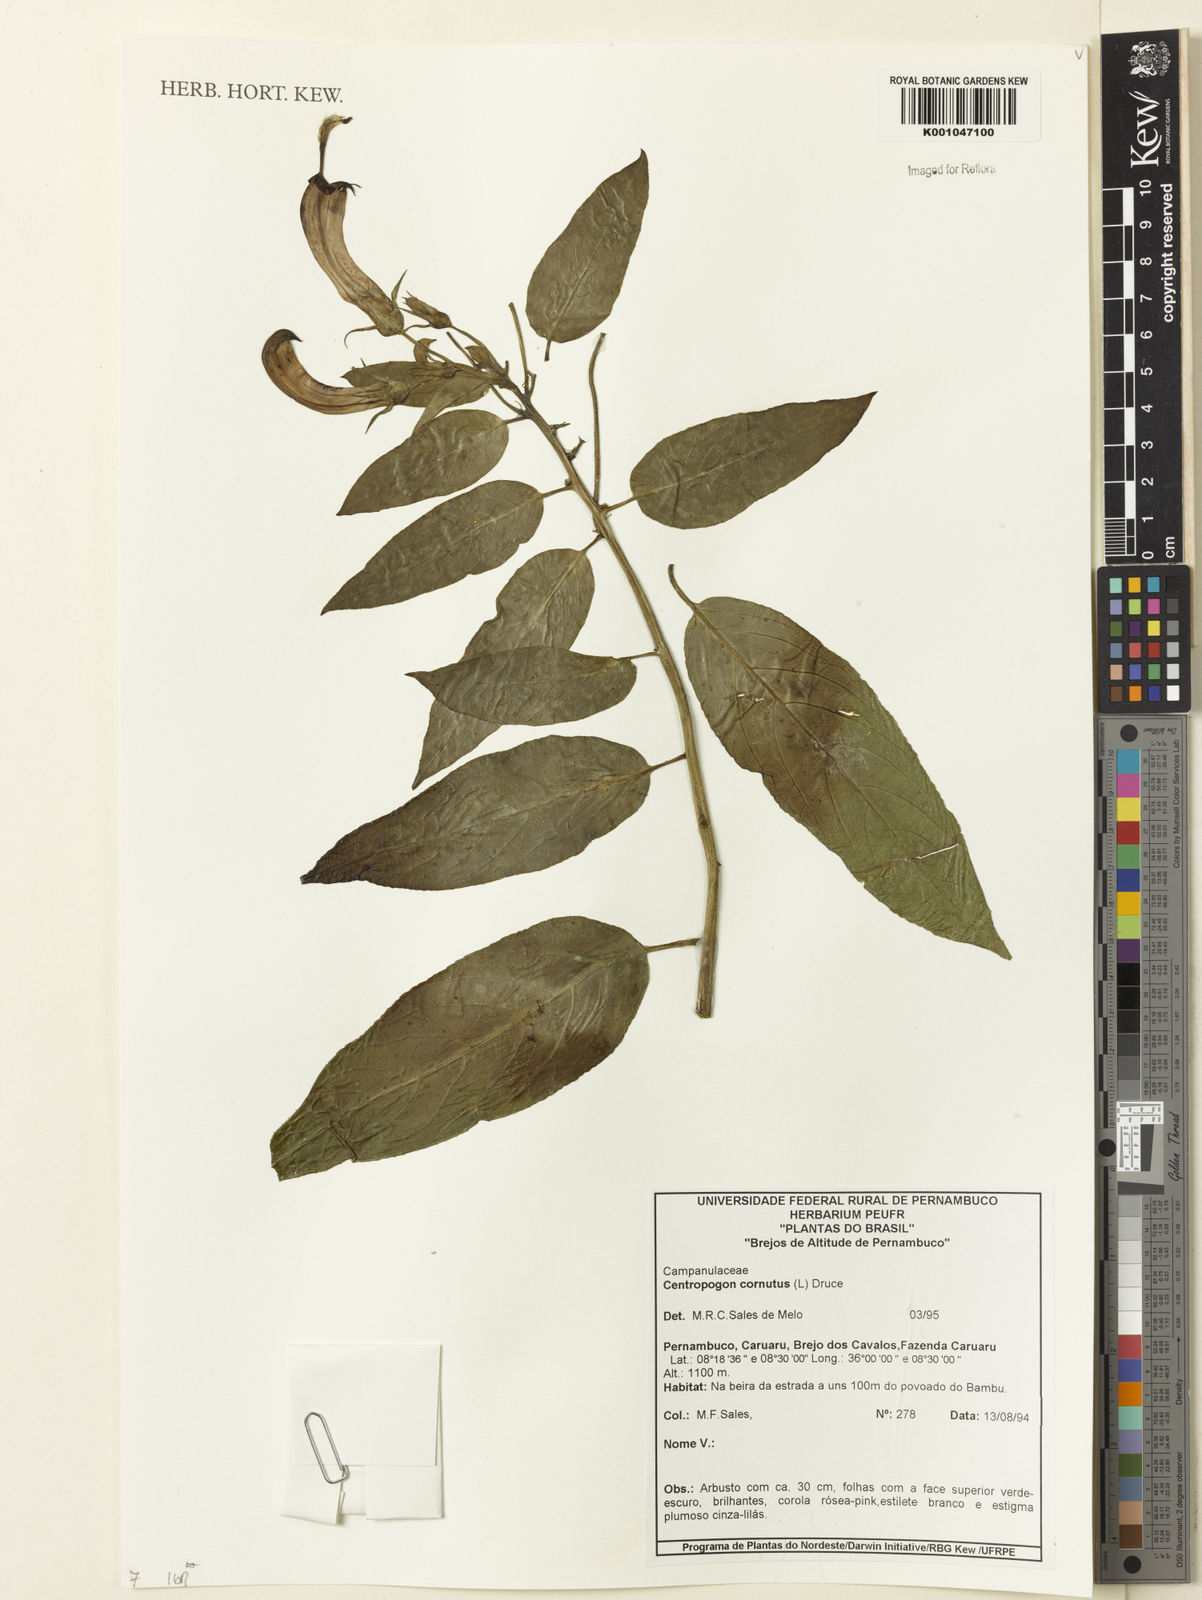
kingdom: Plantae
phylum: Tracheophyta
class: Magnoliopsida
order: Asterales
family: Campanulaceae
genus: Centropogon
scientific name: Centropogon cornutus
